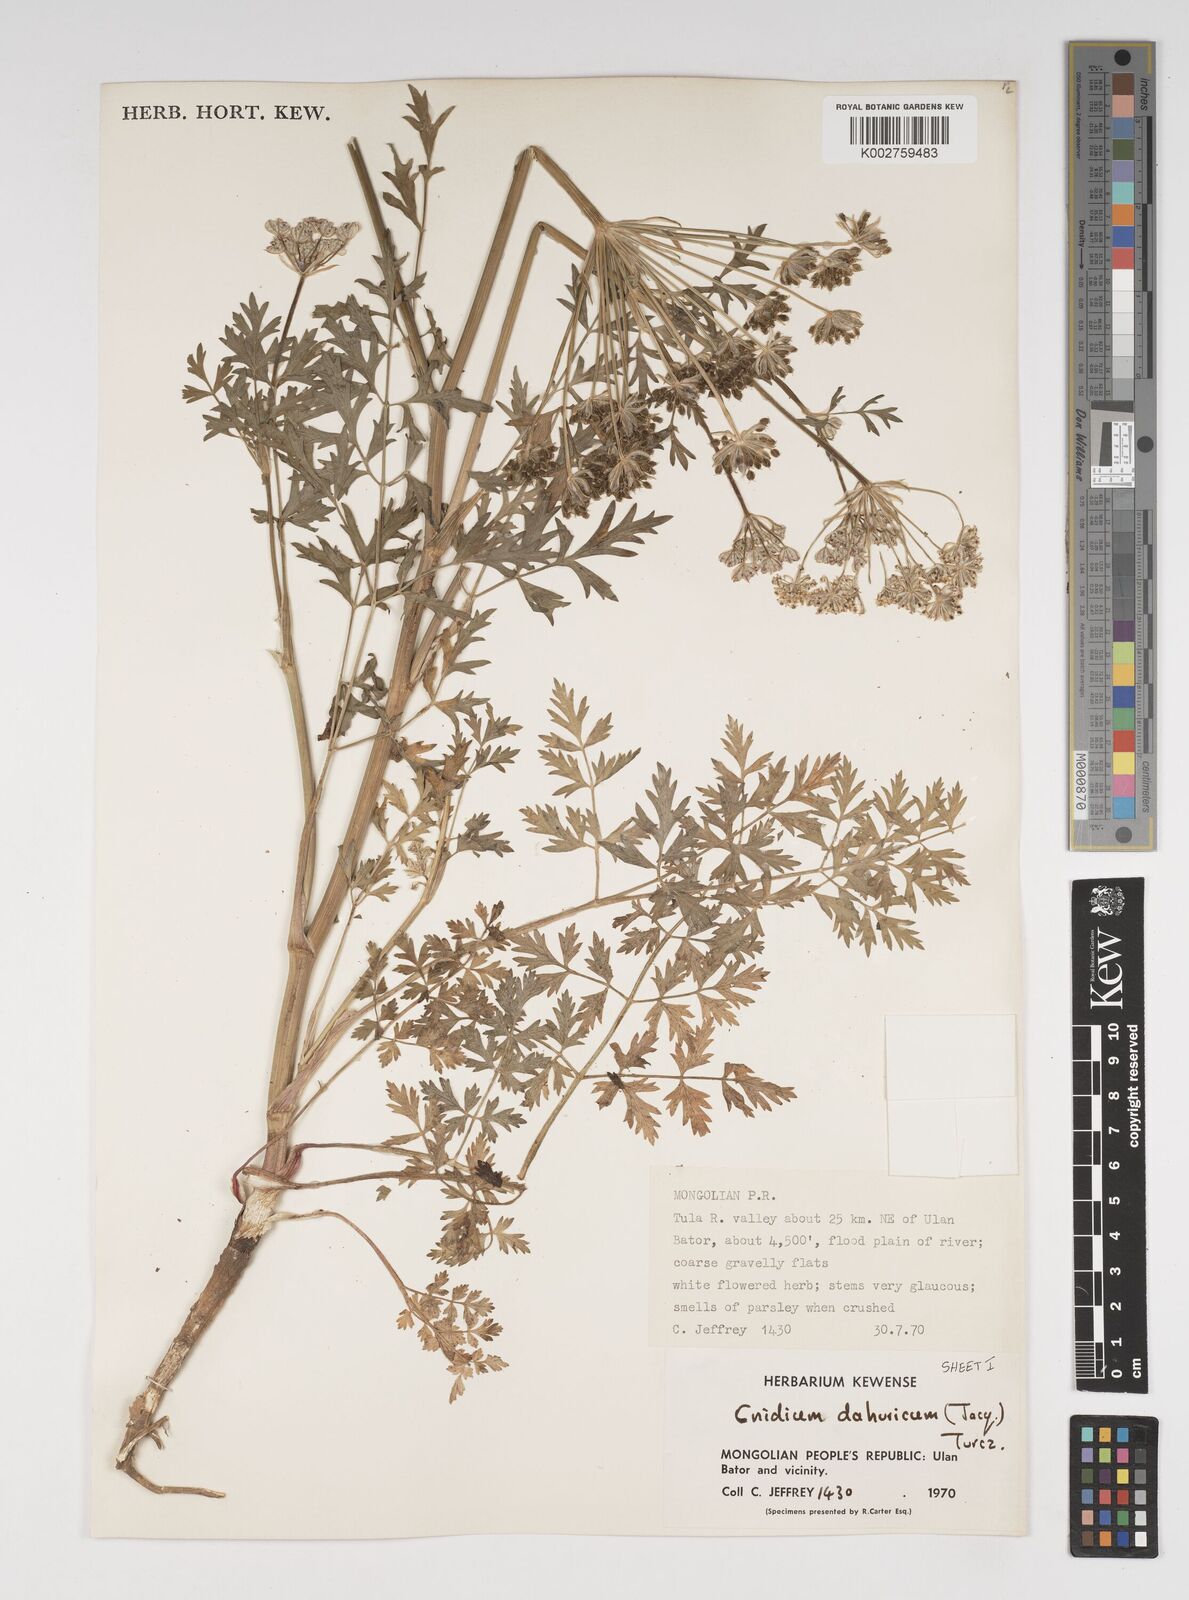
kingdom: Plantae
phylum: Tracheophyta
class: Magnoliopsida
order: Apiales
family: Apiaceae
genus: Cnidium
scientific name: Cnidium dauricum
